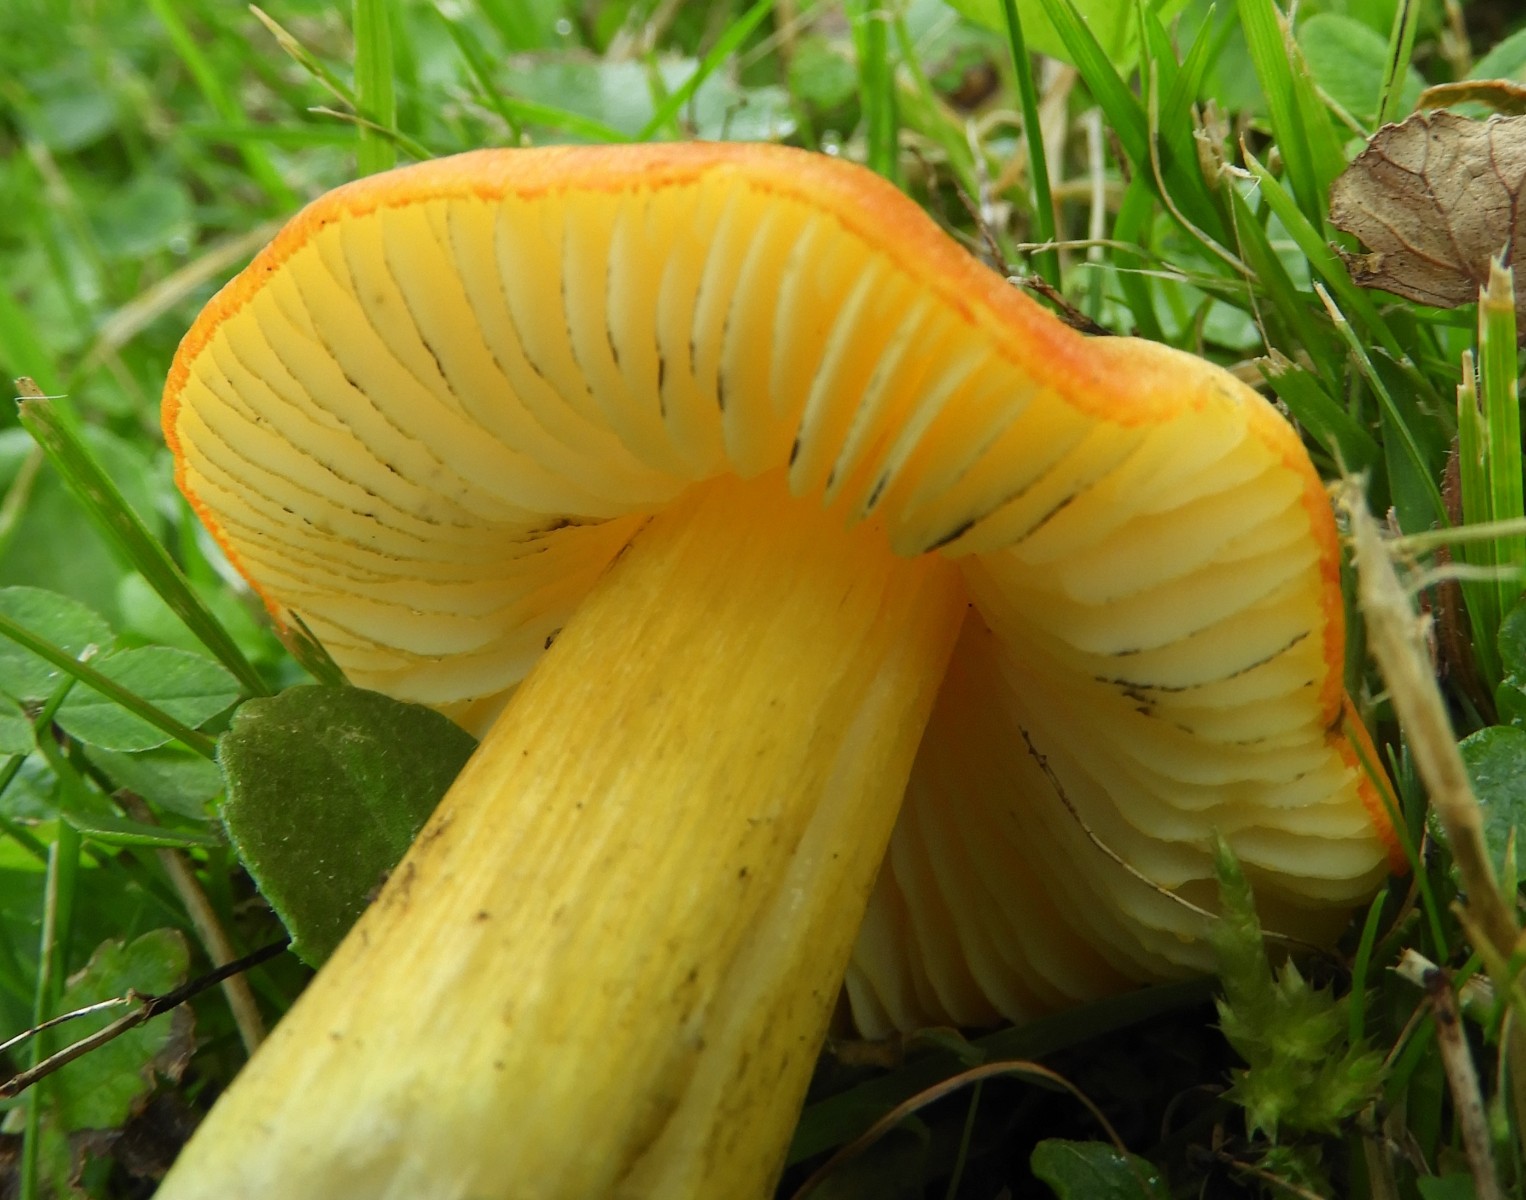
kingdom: Fungi
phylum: Basidiomycota
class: Agaricomycetes
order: Agaricales
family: Hygrophoraceae
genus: Hygrocybe
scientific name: Hygrocybe conica
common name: kegle-vokshat
